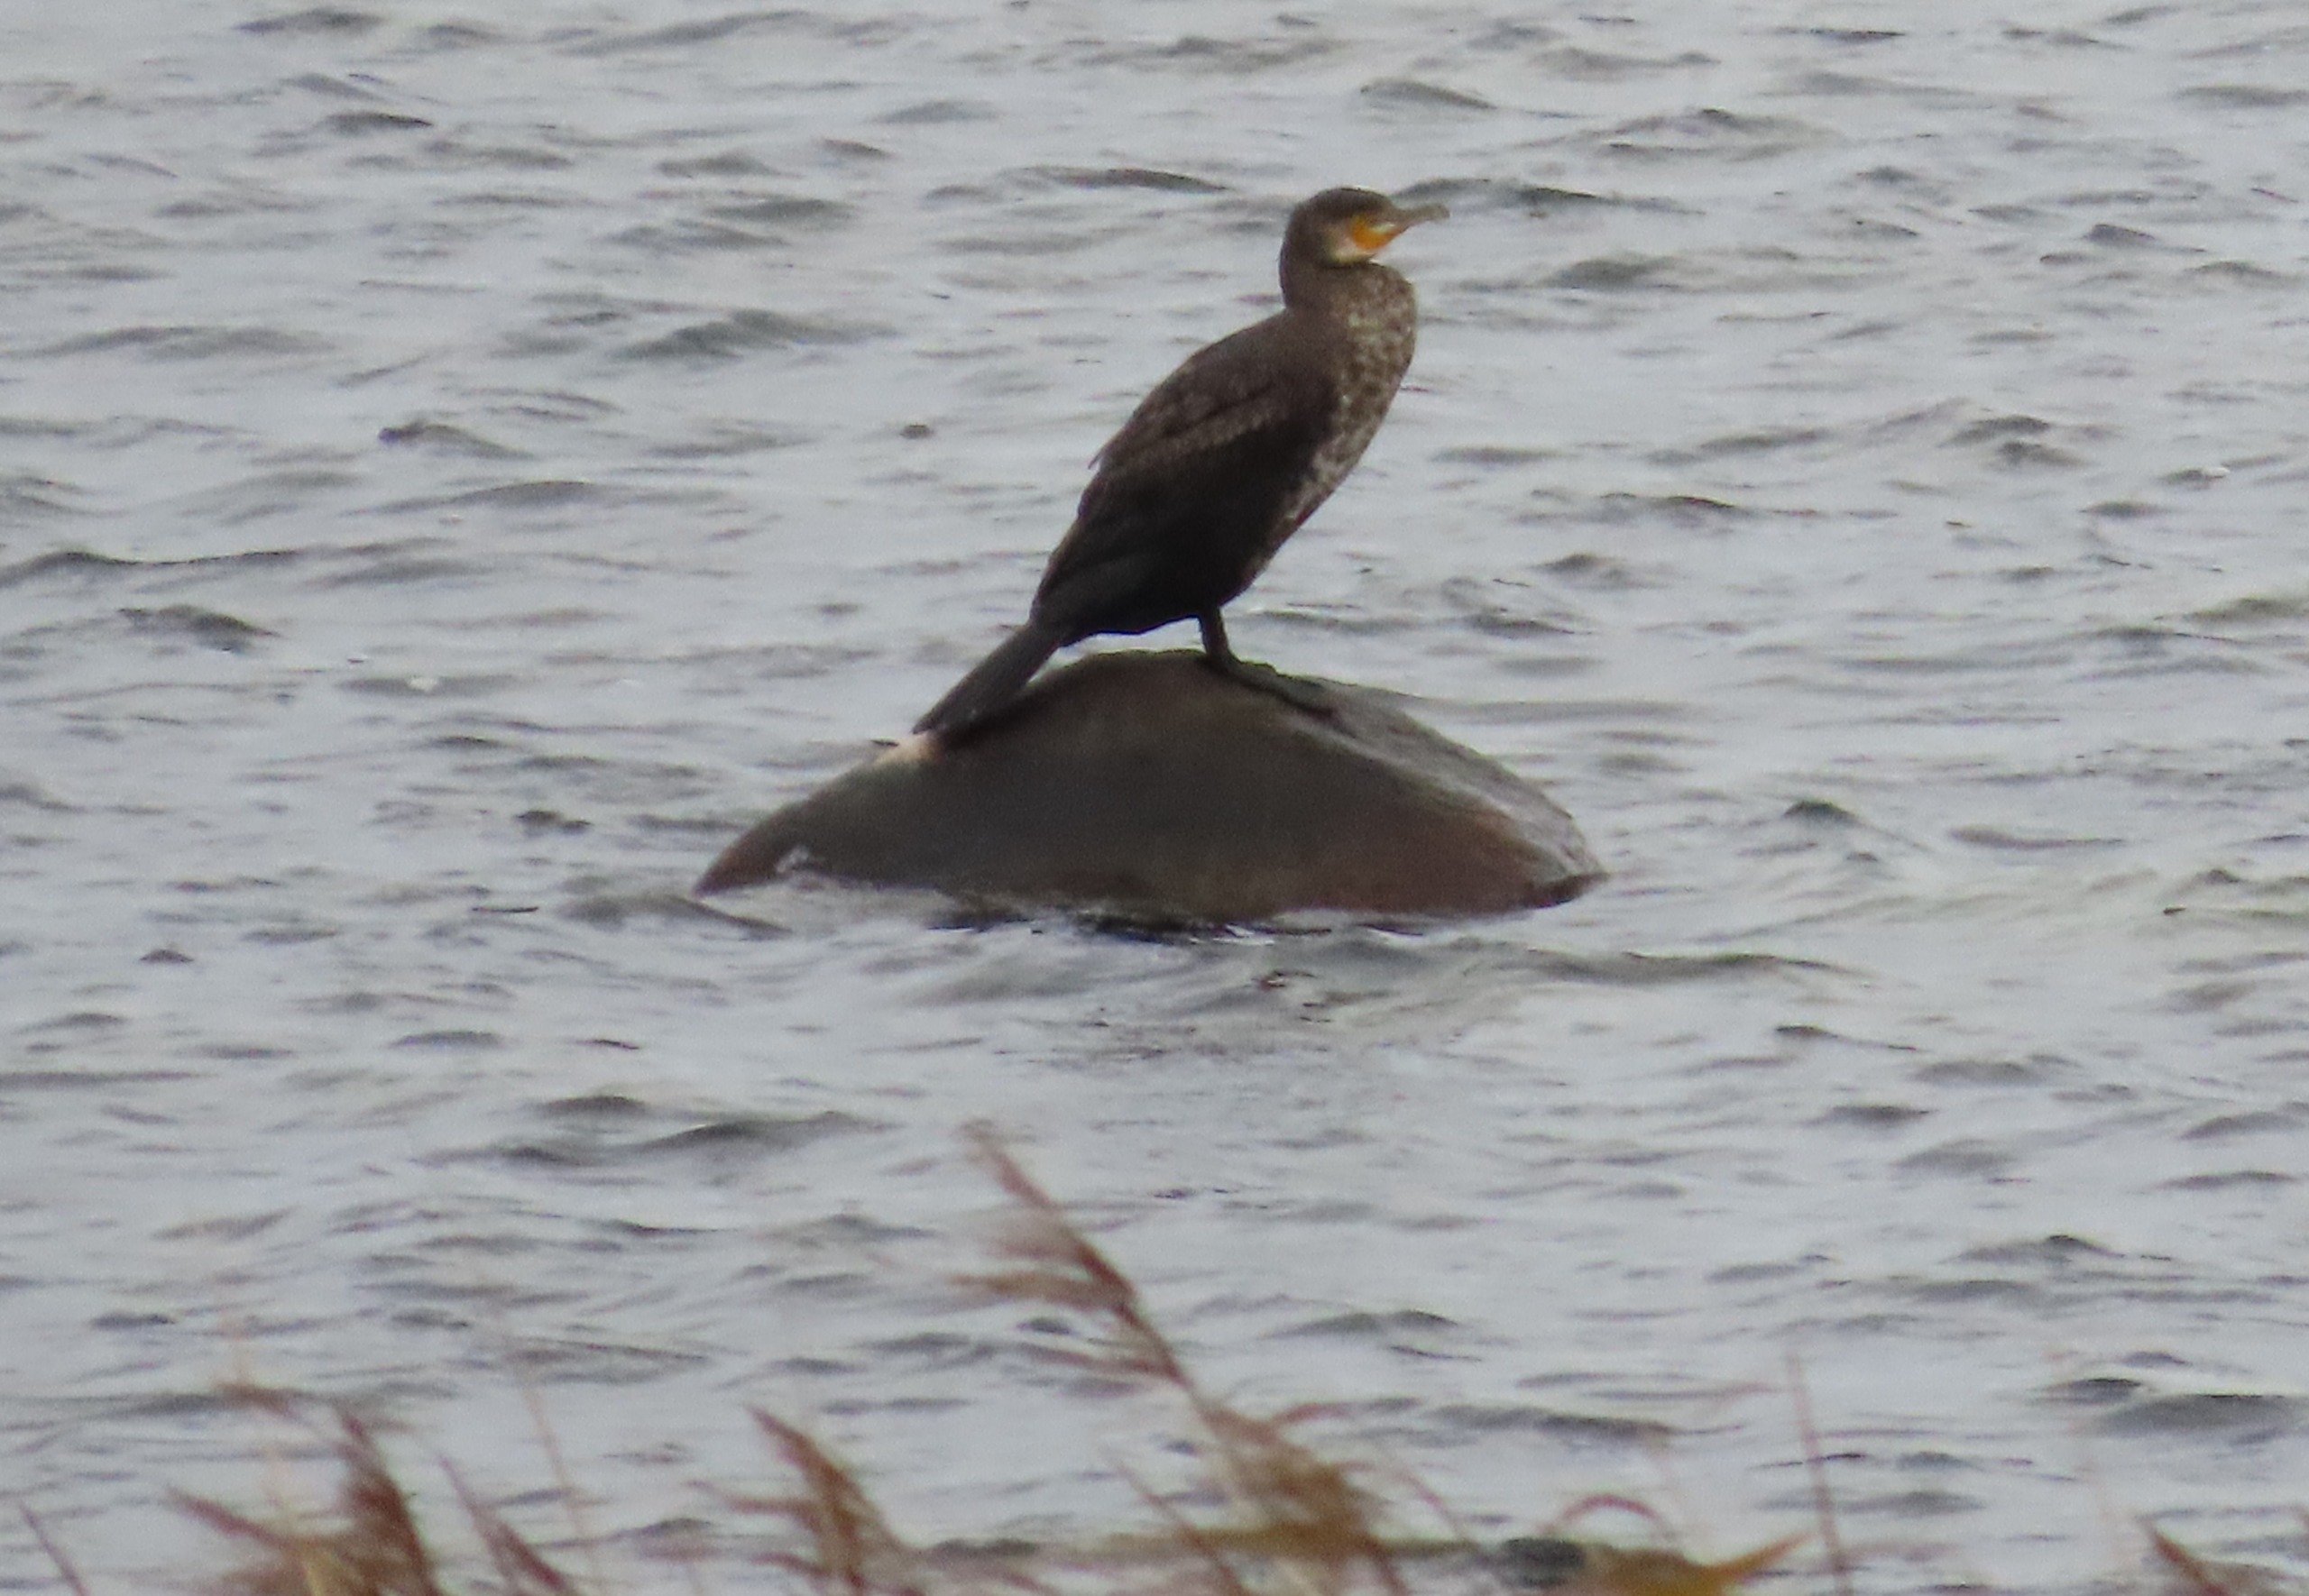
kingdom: Animalia
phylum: Chordata
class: Aves
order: Suliformes
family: Phalacrocoracidae
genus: Phalacrocorax
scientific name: Phalacrocorax carbo
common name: Skarv
